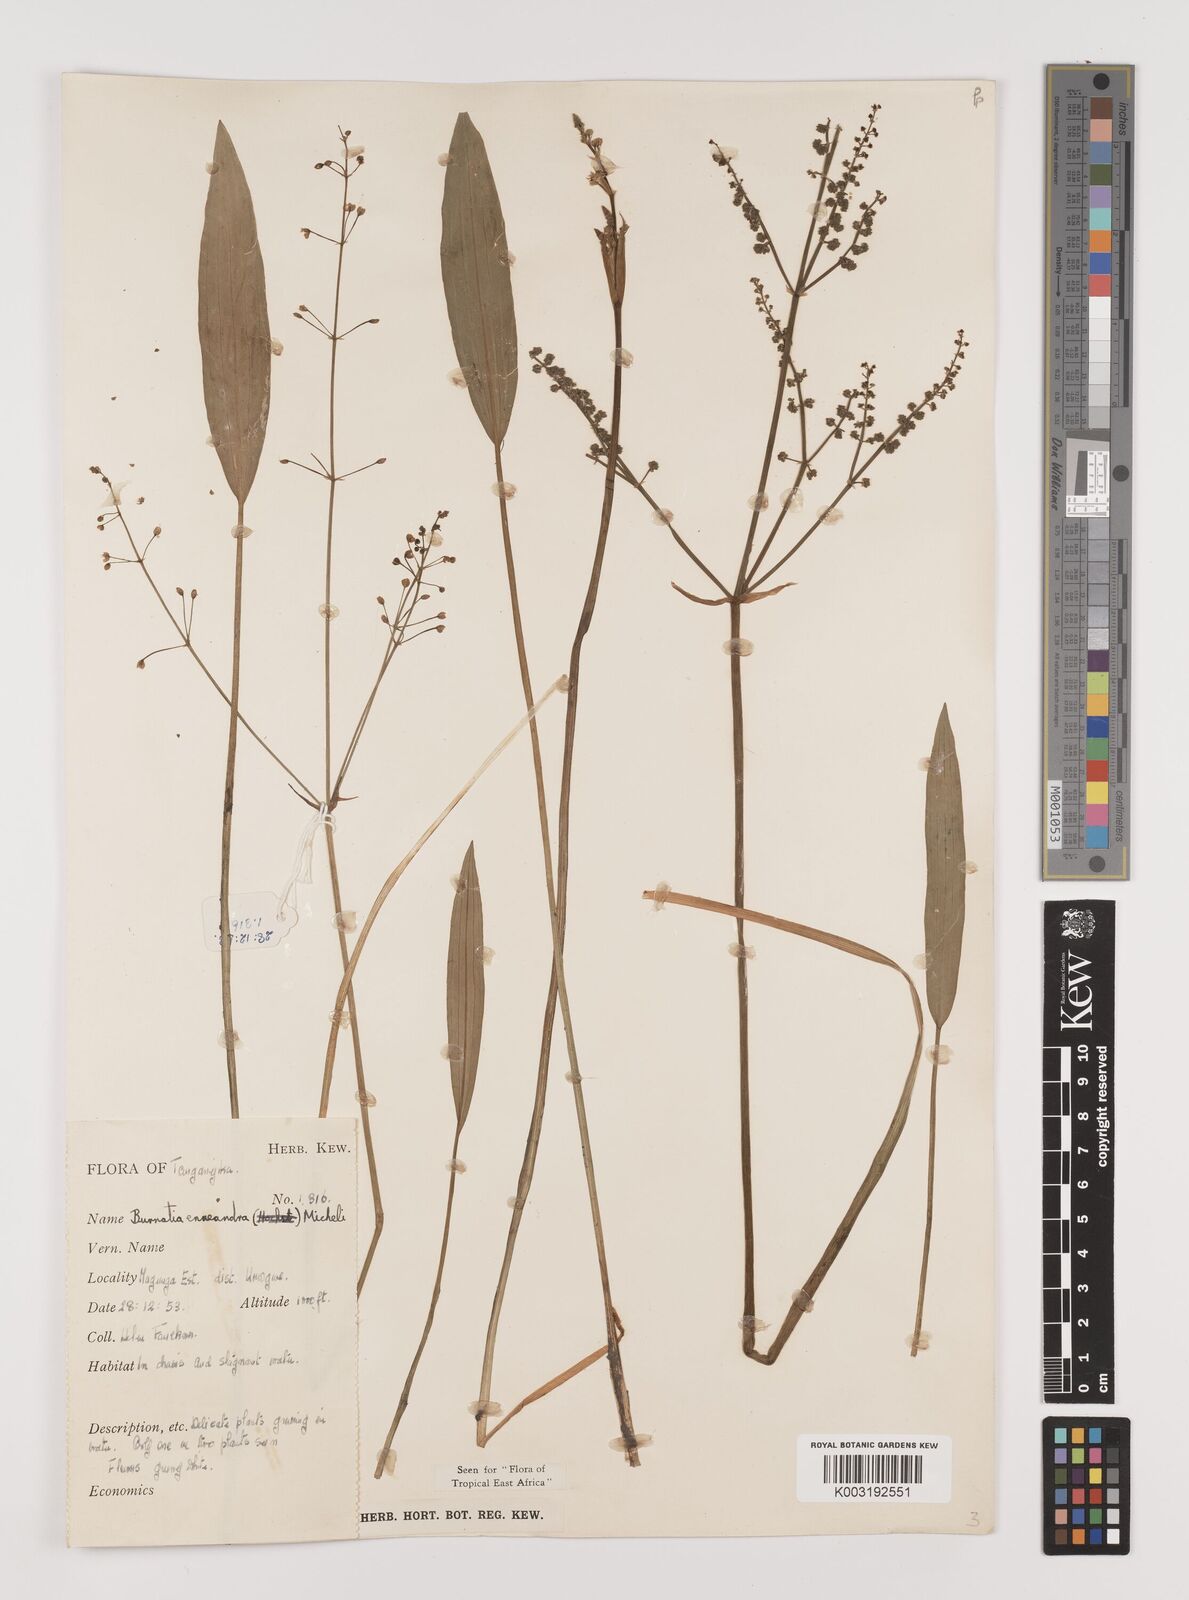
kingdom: Plantae
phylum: Tracheophyta
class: Liliopsida
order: Alismatales
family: Alismataceae
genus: Burnatia
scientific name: Burnatia enneandra
